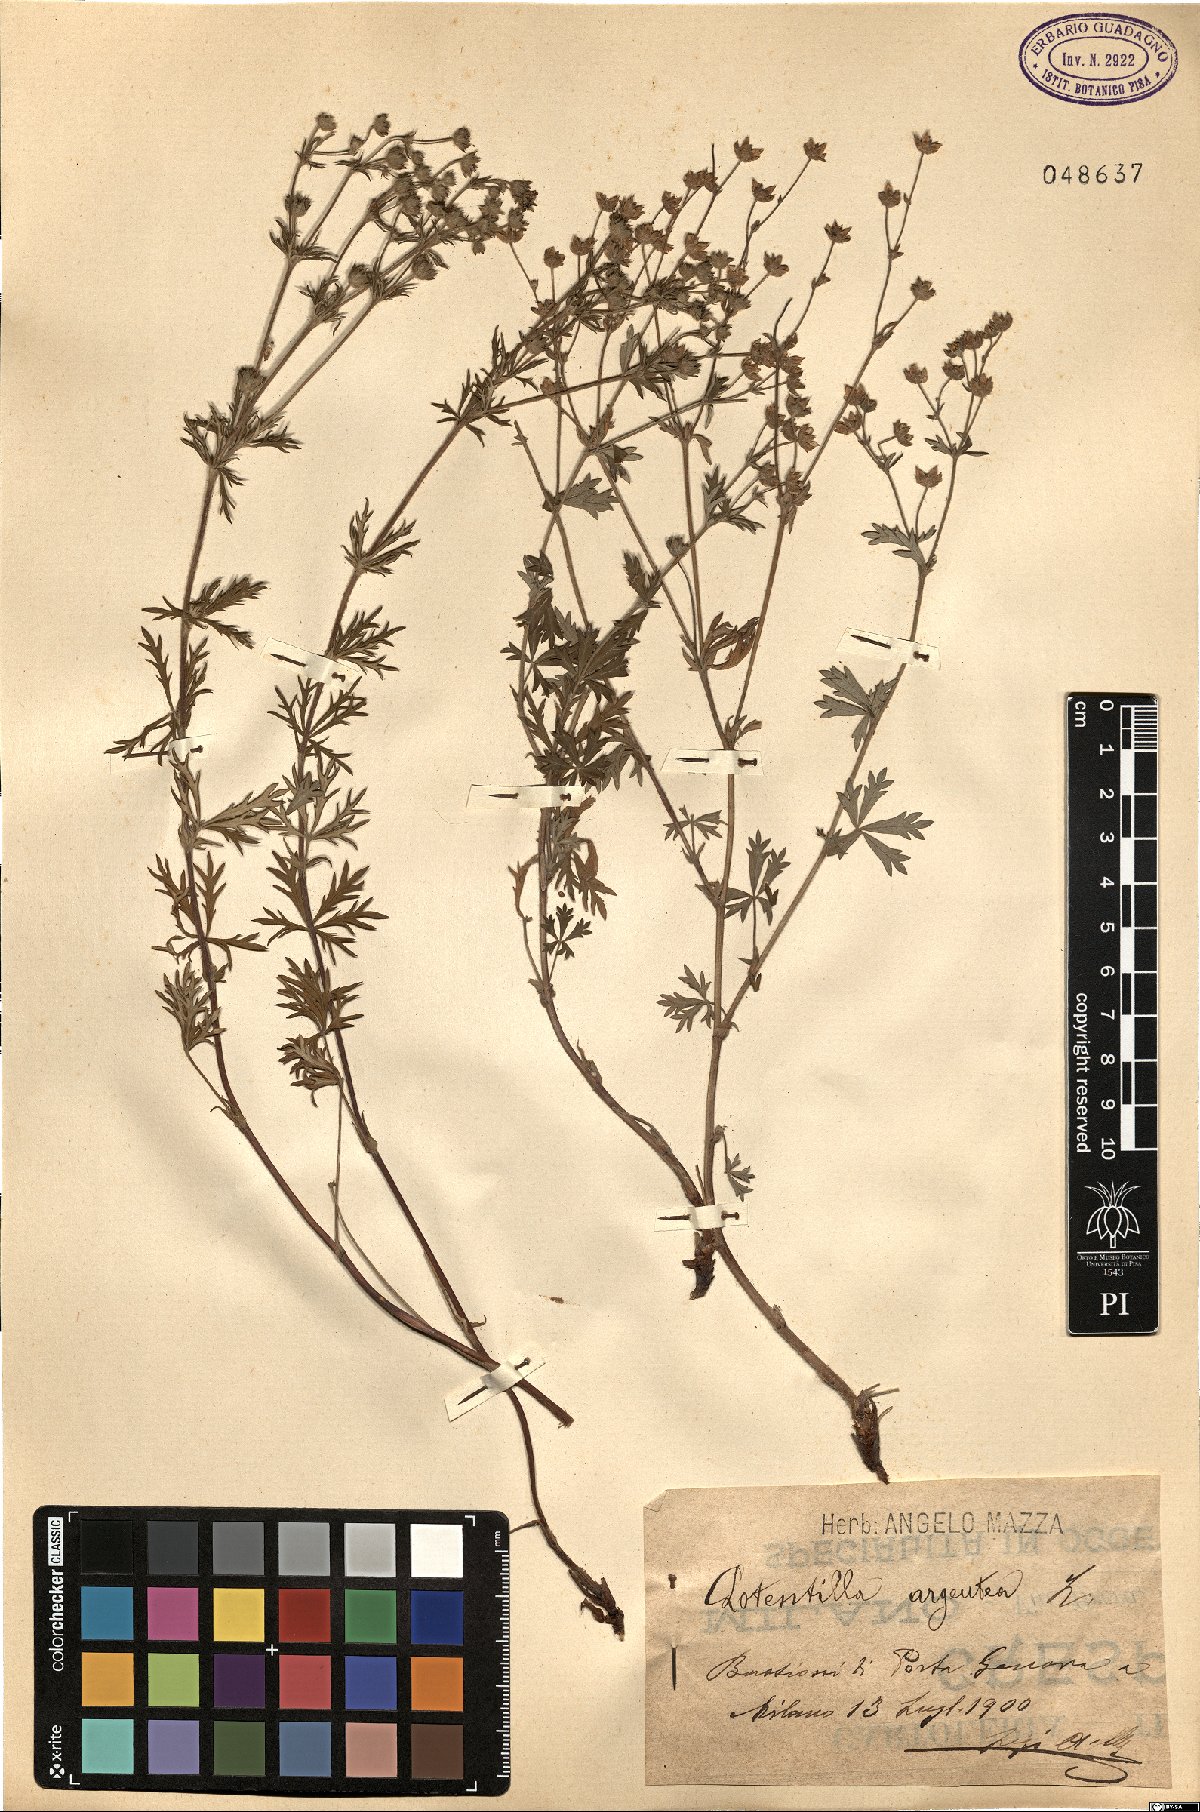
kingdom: Plantae
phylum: Tracheophyta
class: Magnoliopsida
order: Rosales
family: Rosaceae
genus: Potentilla
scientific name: Potentilla argentea
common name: Hoary cinquefoil
